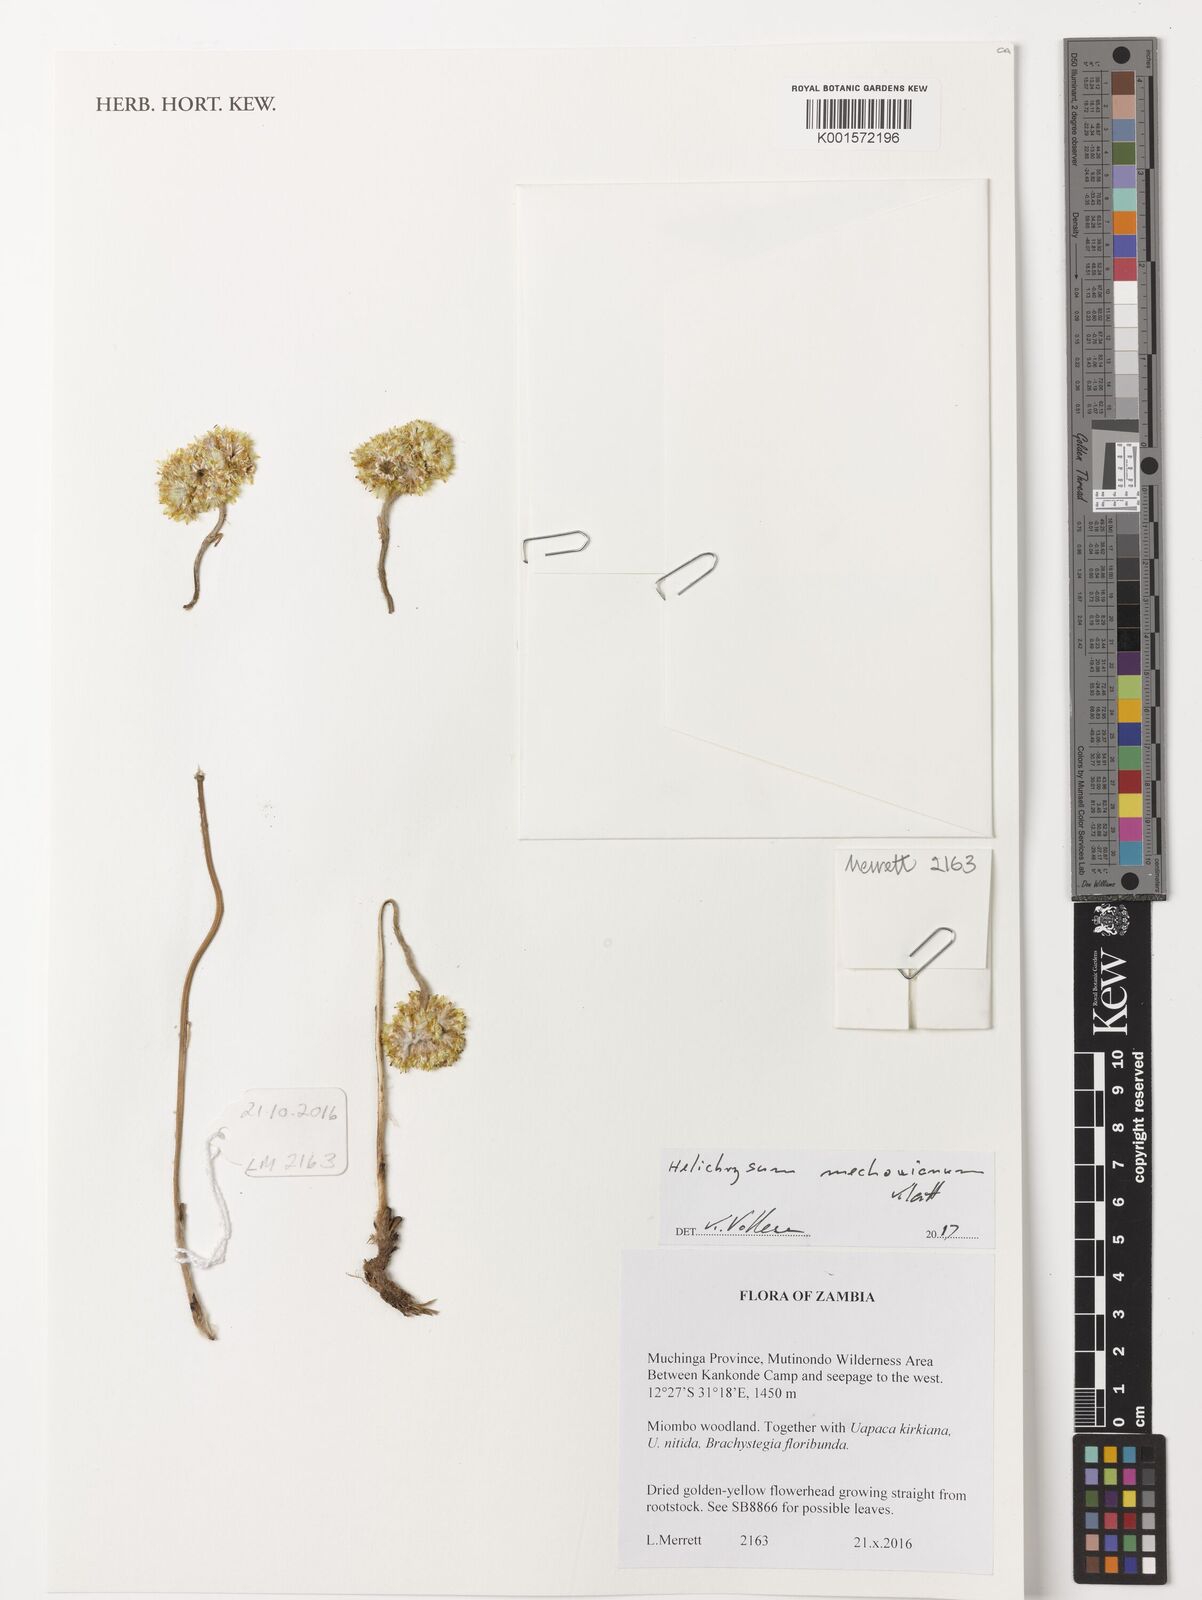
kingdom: Plantae
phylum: Tracheophyta
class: Magnoliopsida
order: Asterales
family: Asteraceae
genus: Helichrysum
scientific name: Helichrysum mechowianum
